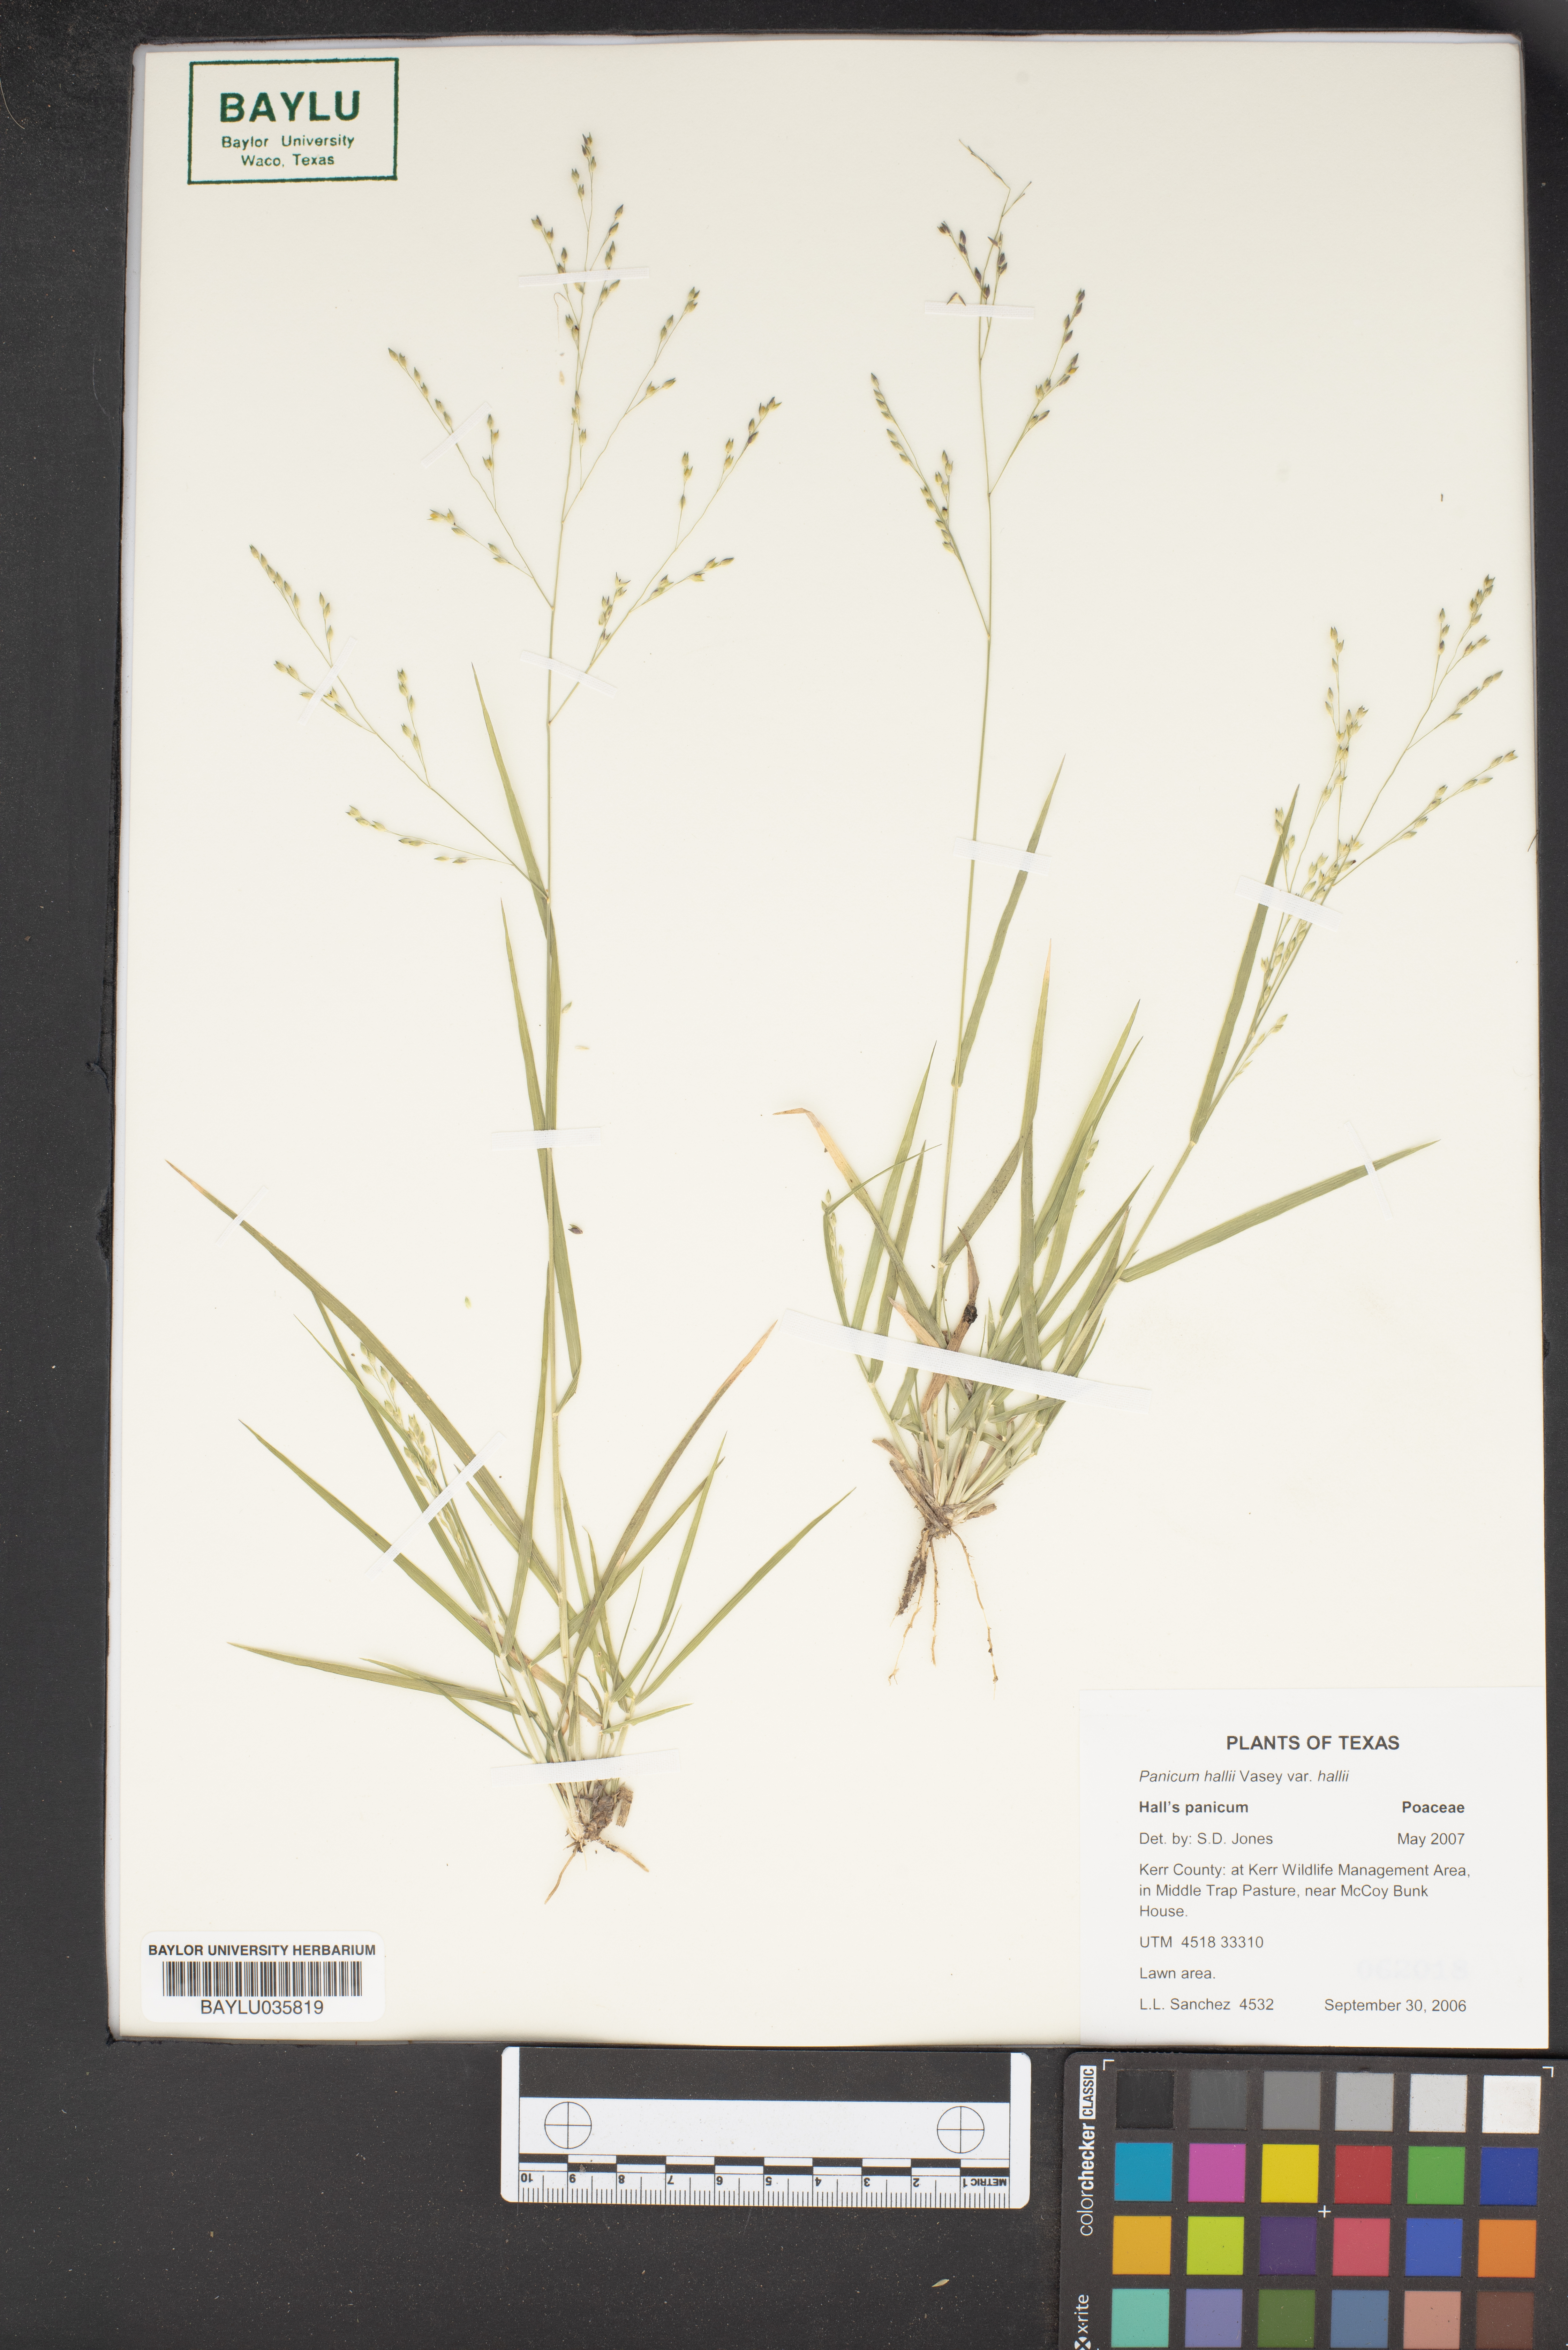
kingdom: Plantae
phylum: Tracheophyta
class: Liliopsida
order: Poales
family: Poaceae
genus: Panicum
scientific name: Panicum hallii
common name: Hall's witchgrass
